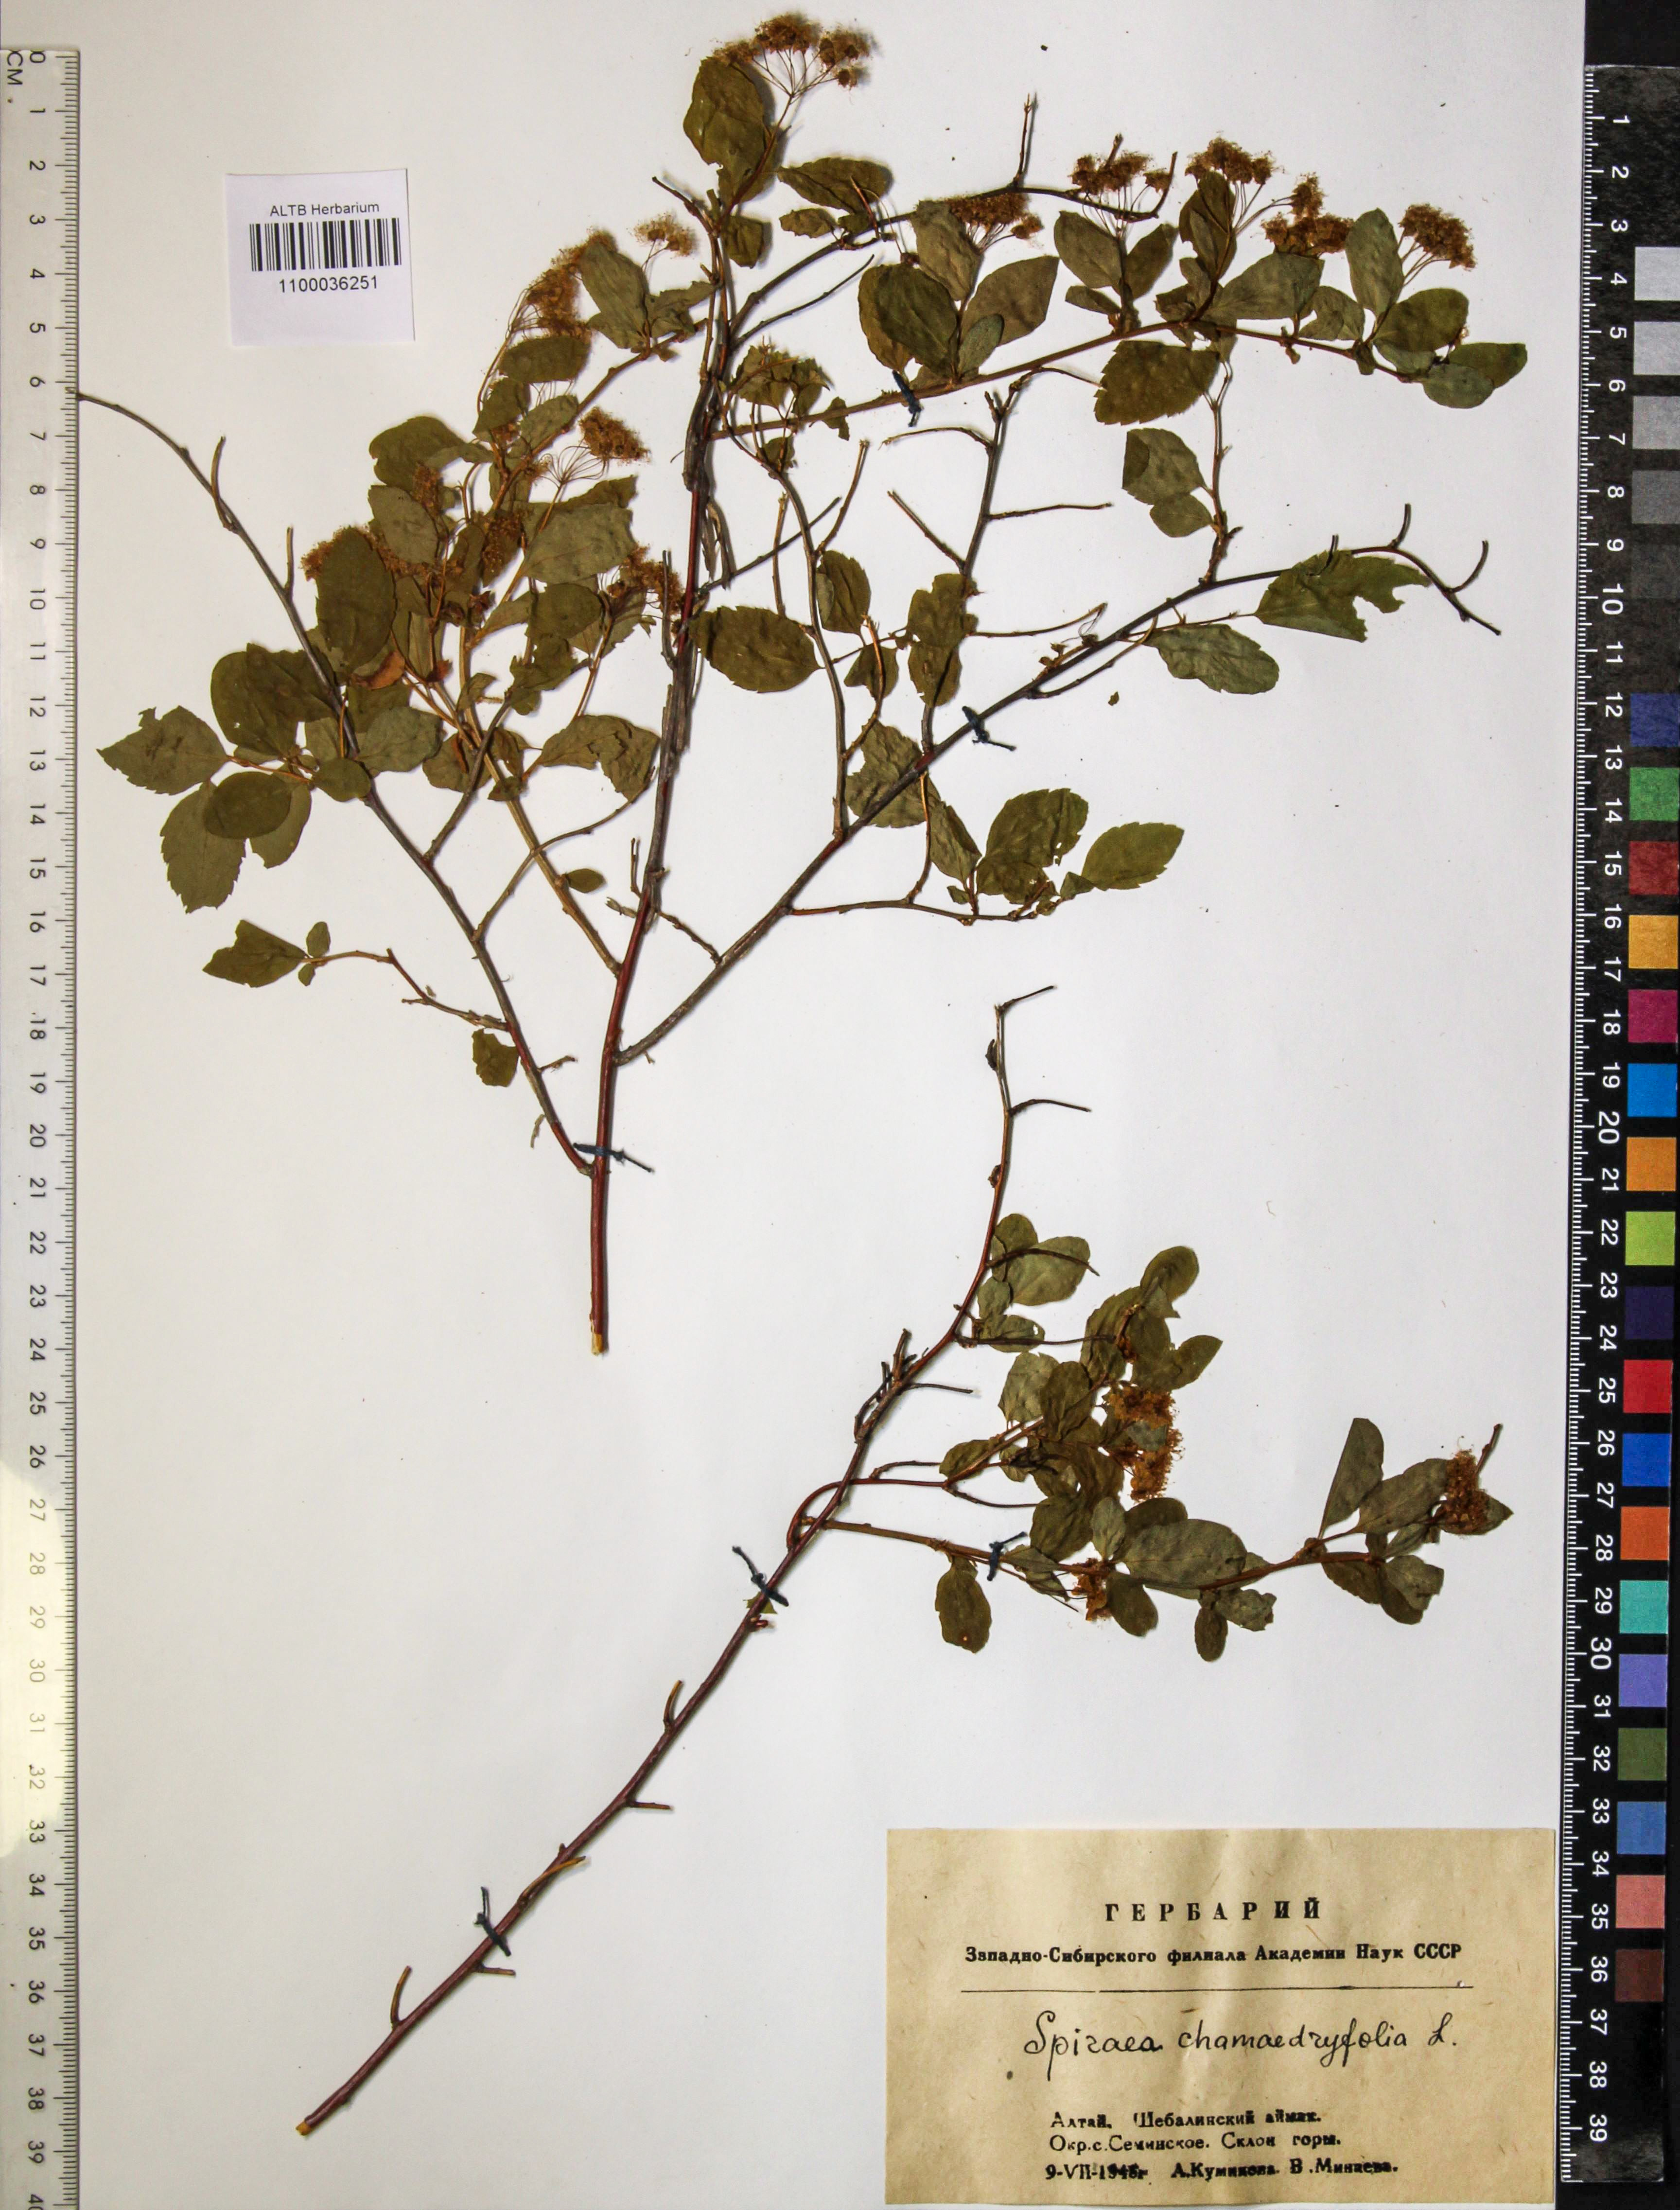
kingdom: Plantae
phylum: Tracheophyta
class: Magnoliopsida
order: Rosales
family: Rosaceae
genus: Spiraea
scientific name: Spiraea chamaedryfolia
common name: Elm-leaved spiraea
